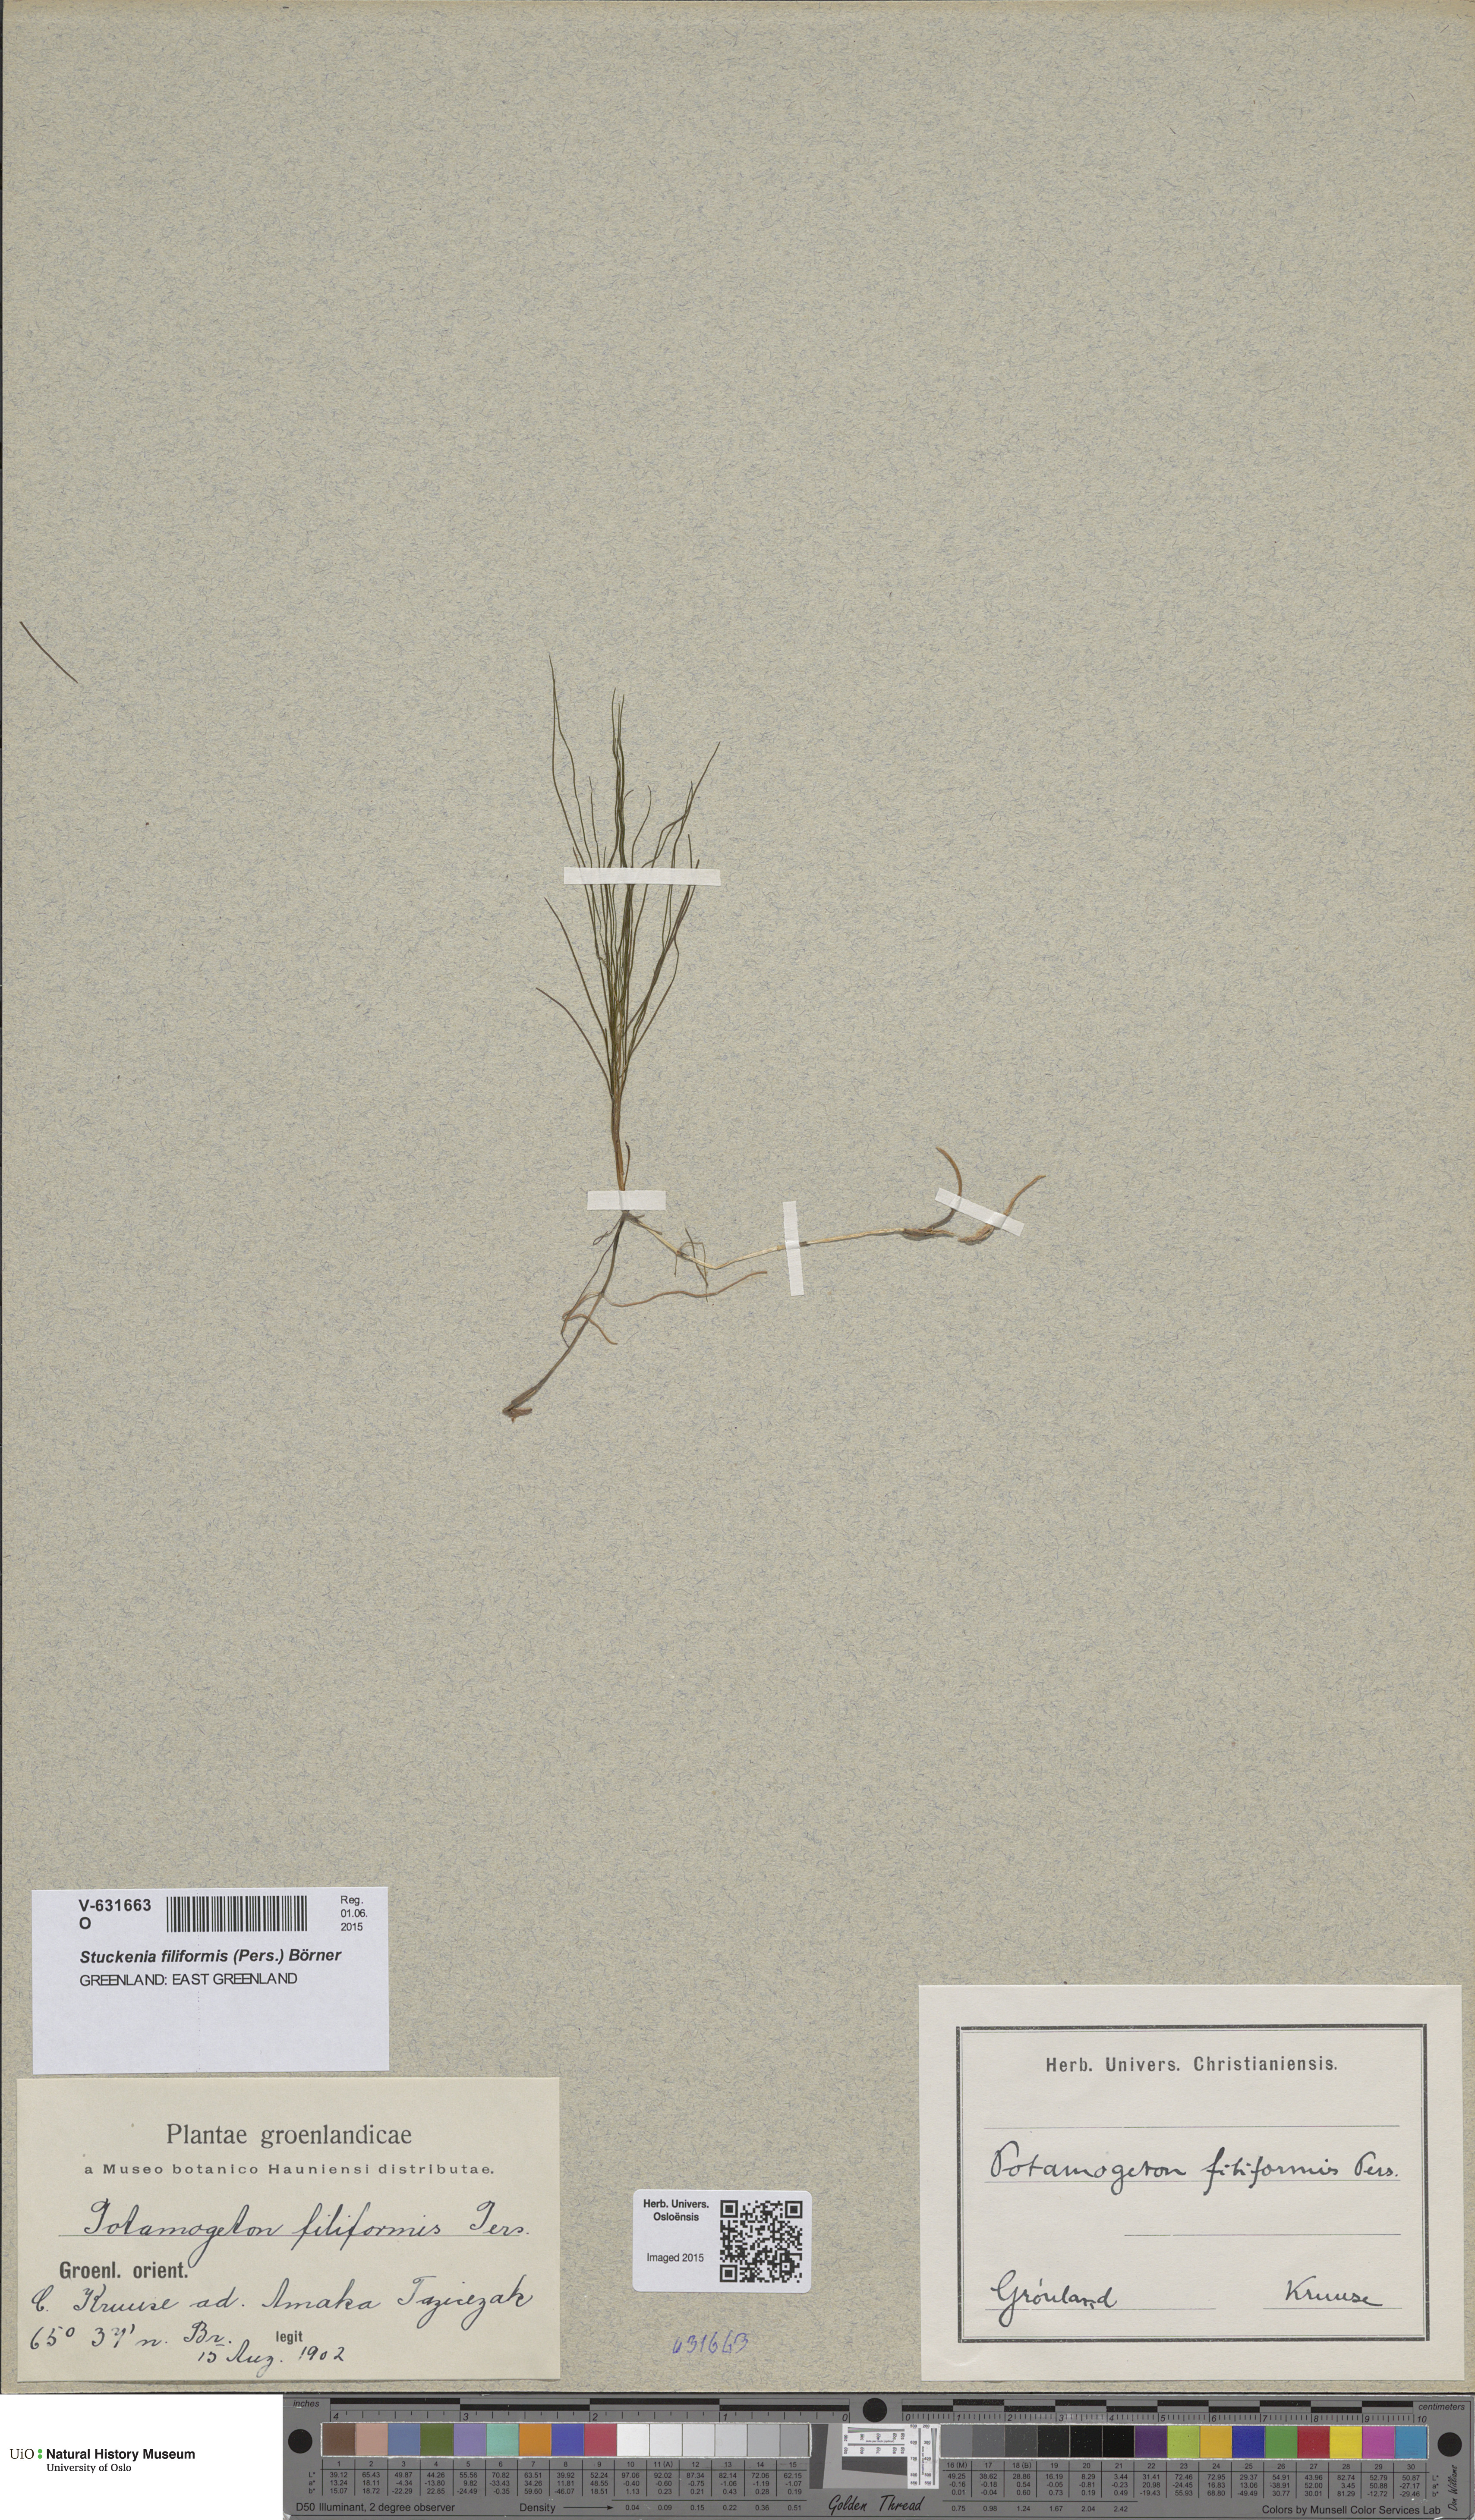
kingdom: Plantae
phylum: Tracheophyta
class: Liliopsida
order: Alismatales
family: Potamogetonaceae
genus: Stuckenia
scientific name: Stuckenia filiformis
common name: Alpine thread-leaved pondweed
